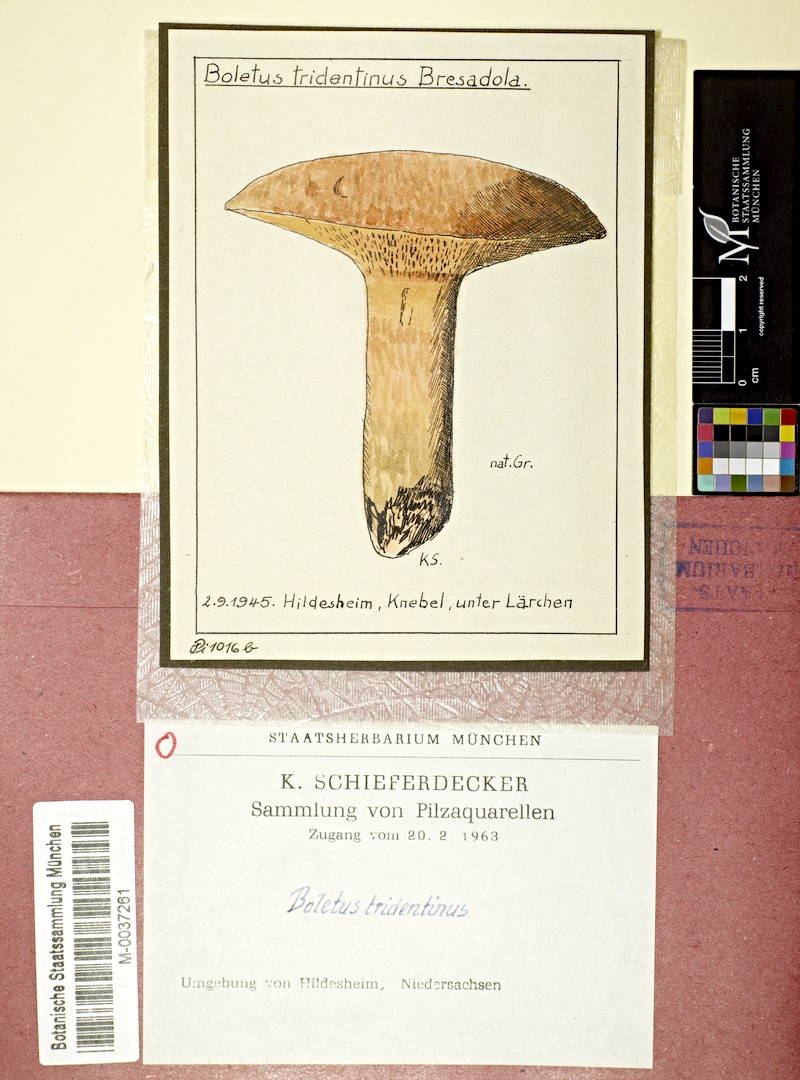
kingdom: Plantae
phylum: Tracheophyta
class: Pinopsida
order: Pinales
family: Pinaceae
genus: Larix
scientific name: Larix
